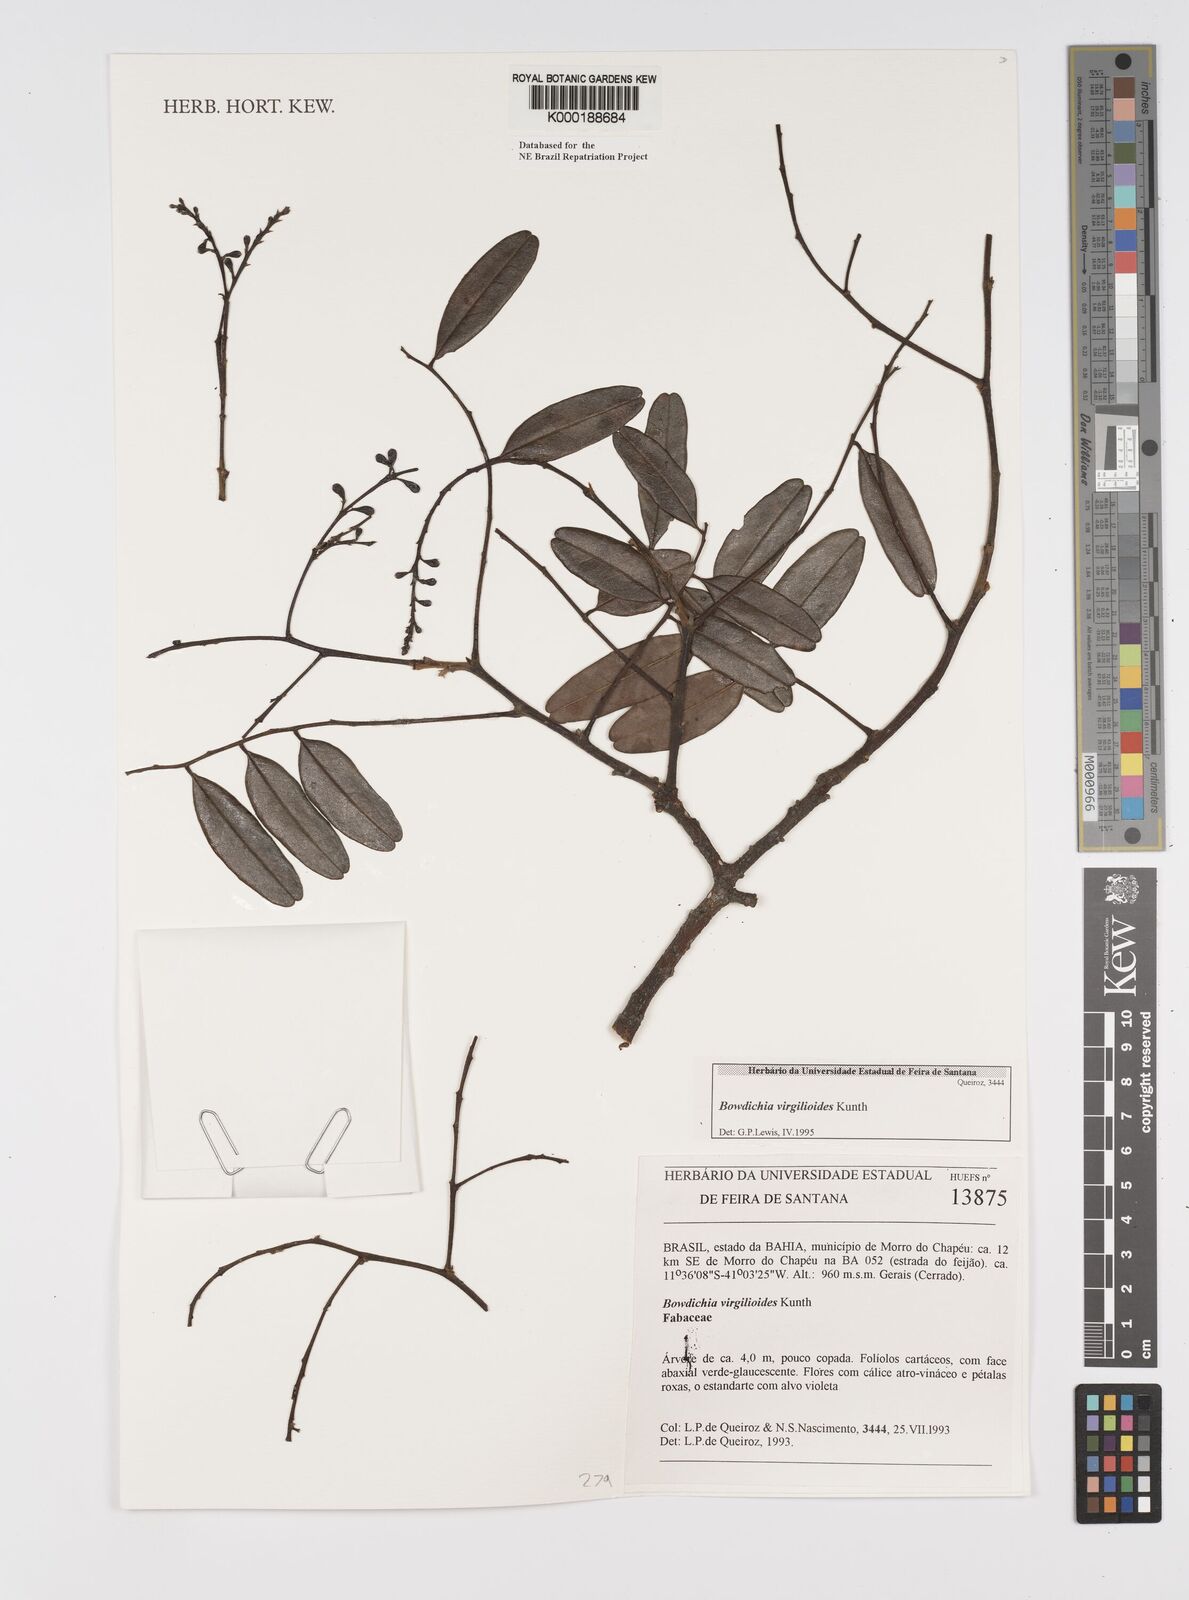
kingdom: Plantae
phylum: Tracheophyta
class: Magnoliopsida
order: Fabales
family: Fabaceae
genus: Bowdichia
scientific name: Bowdichia virgilioides
